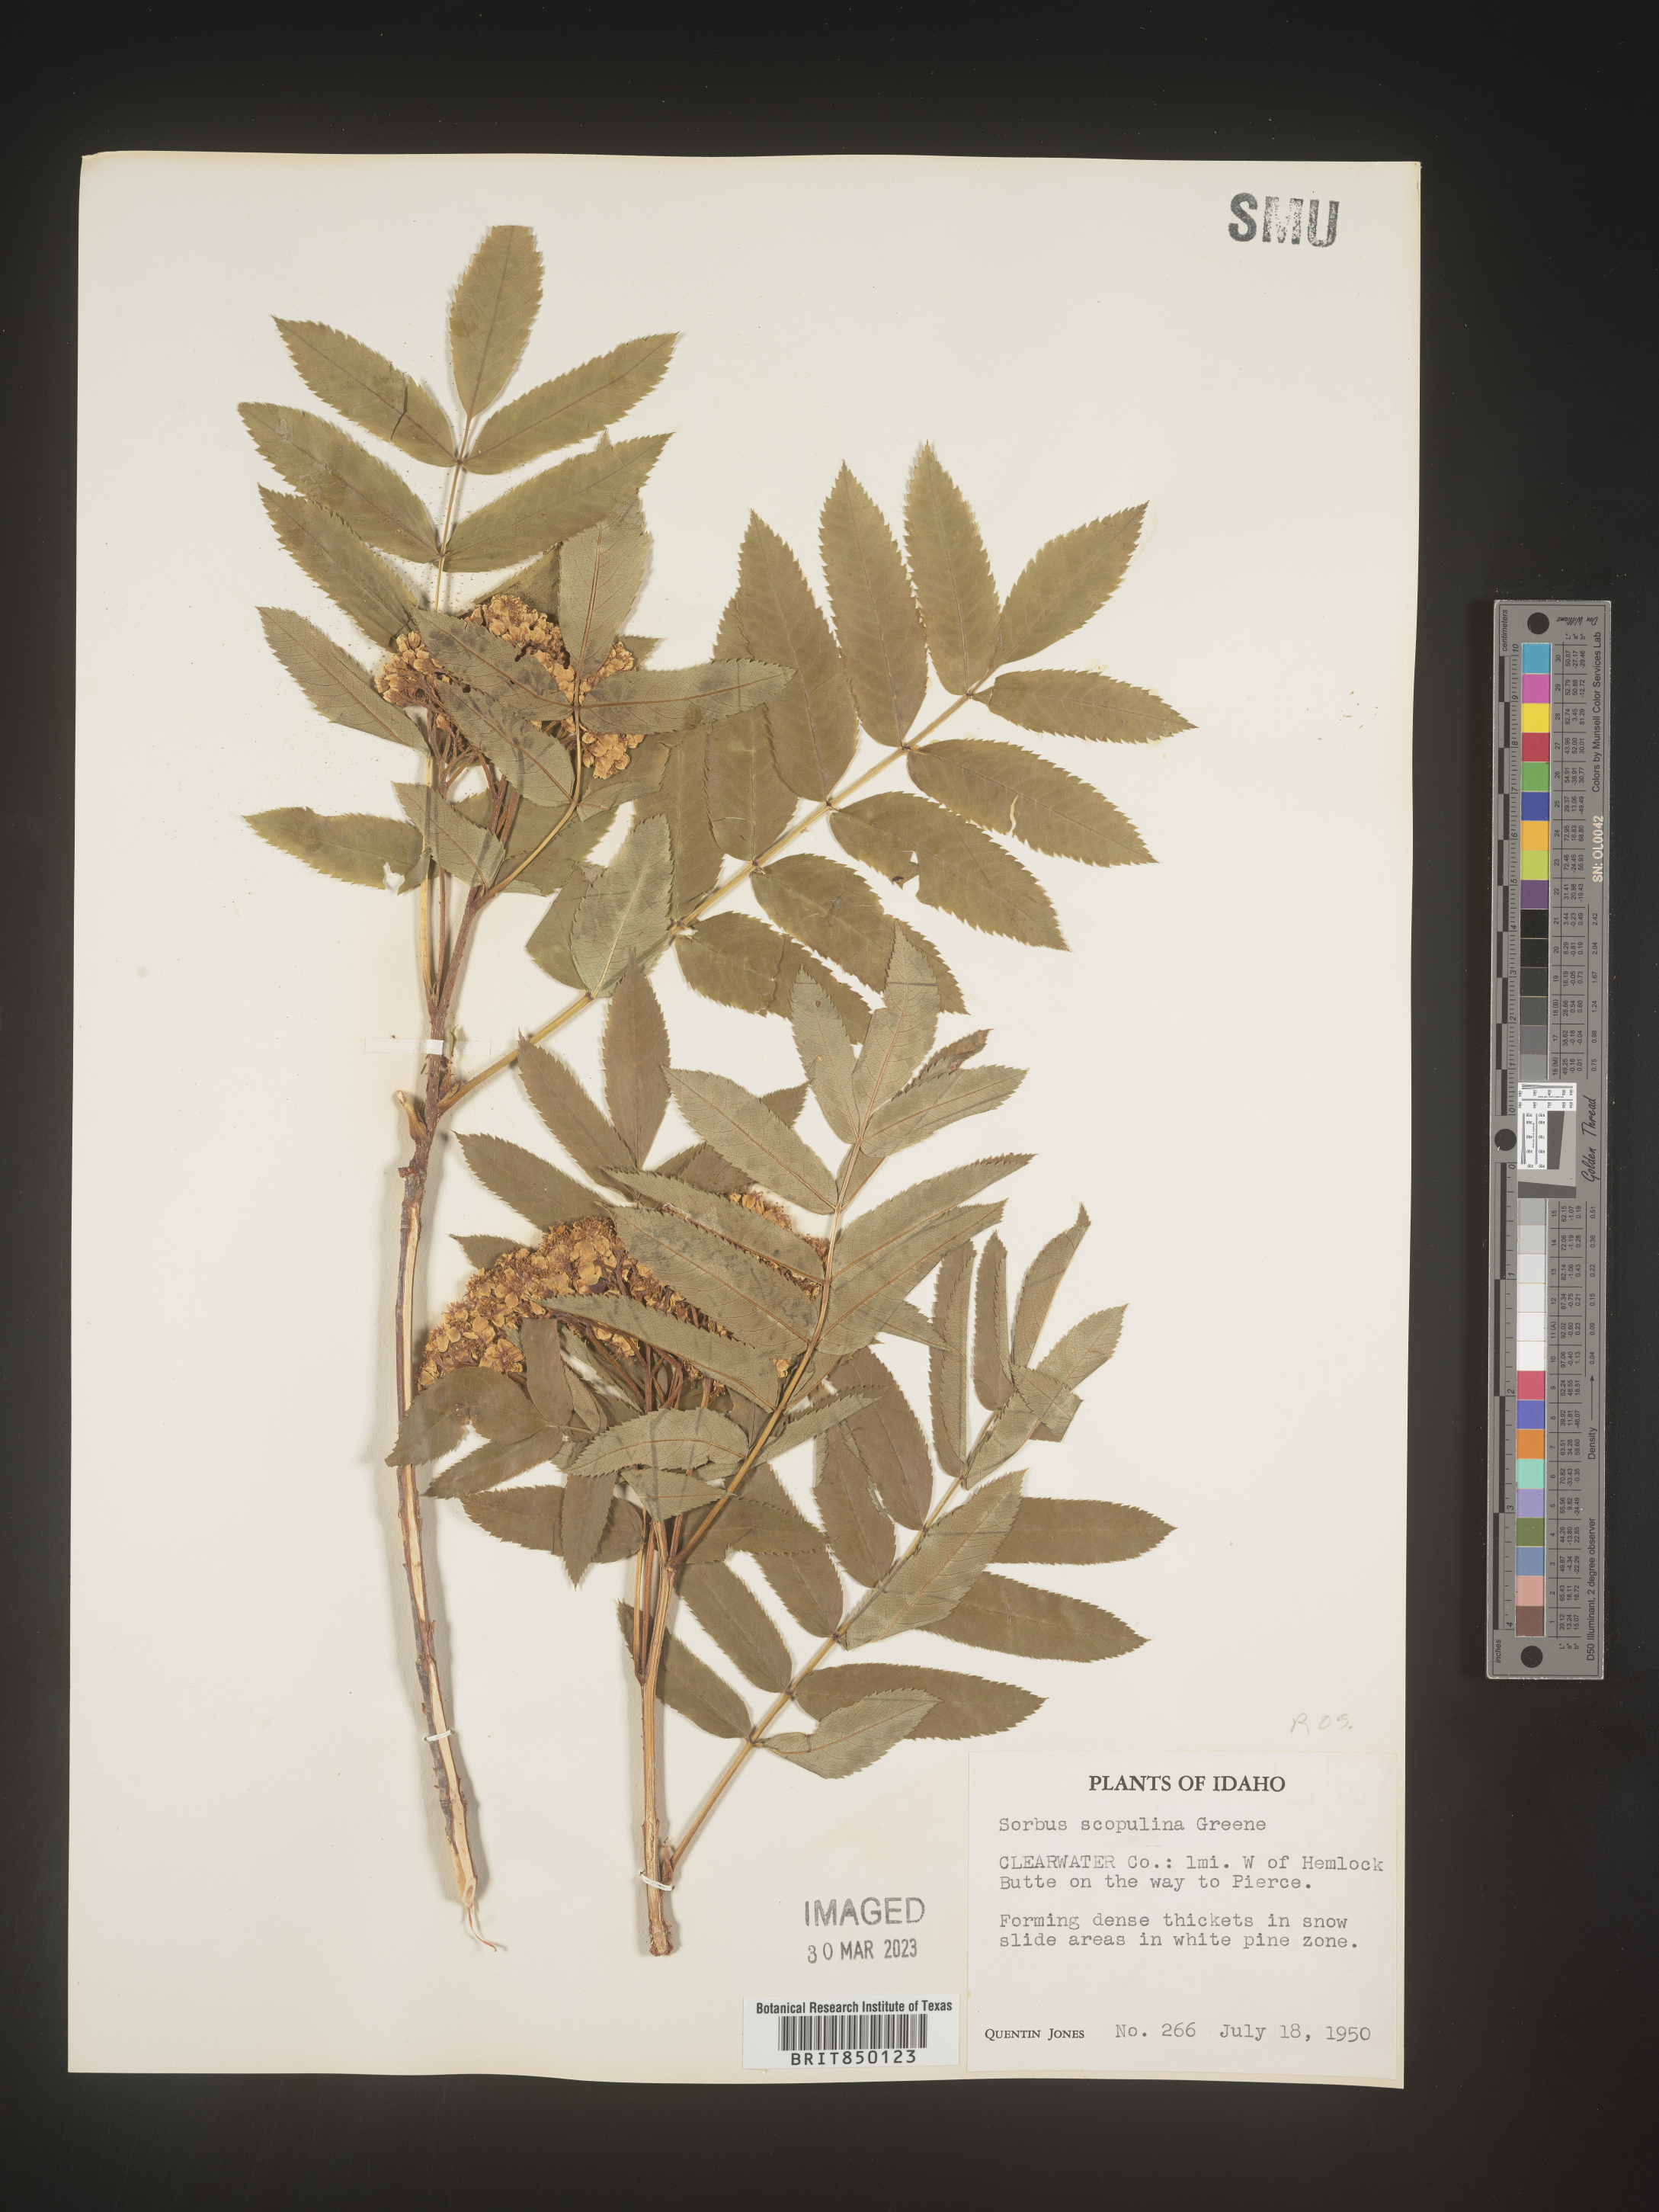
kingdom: Plantae
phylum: Tracheophyta
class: Magnoliopsida
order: Rosales
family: Rosaceae
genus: Sorbus
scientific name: Sorbus scopulina
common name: Greene's mountain-ash
